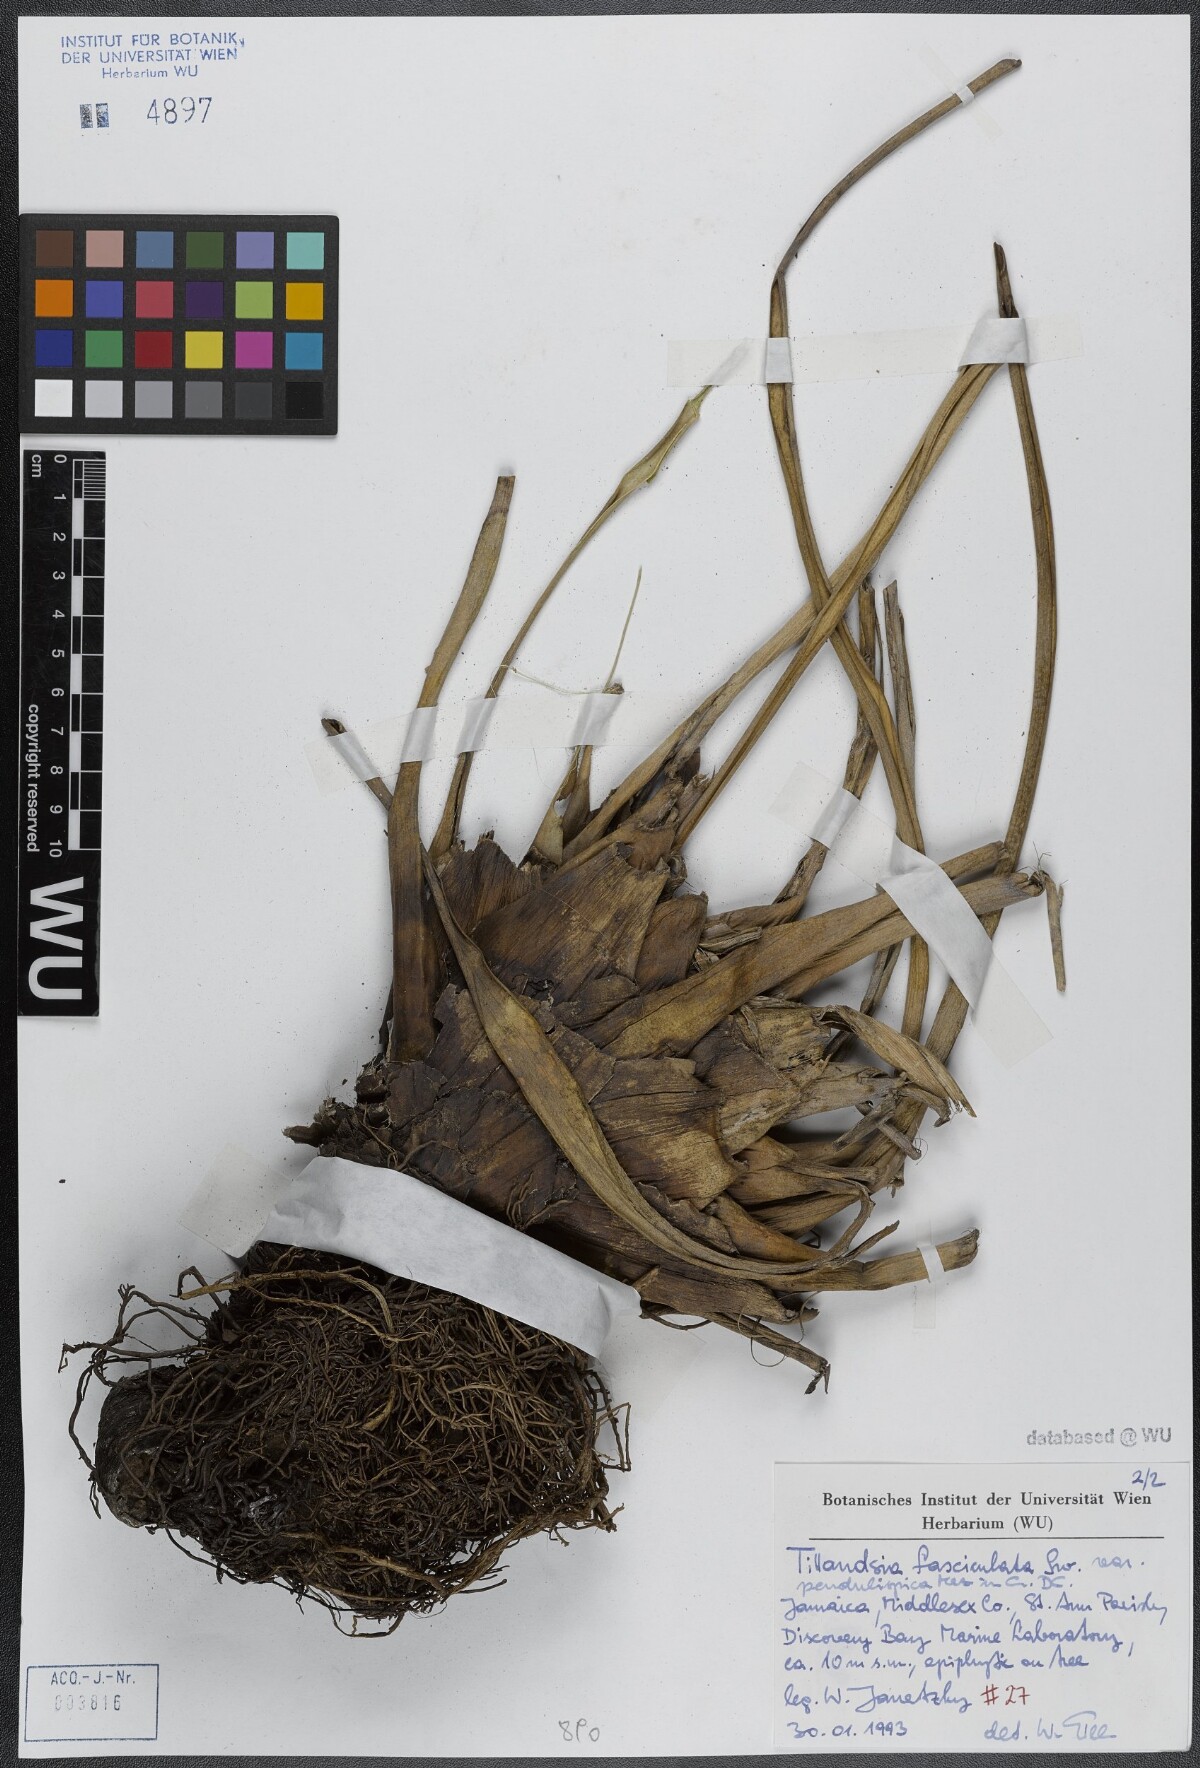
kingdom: Plantae
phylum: Tracheophyta
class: Liliopsida
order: Poales
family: Bromeliaceae
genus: Tillandsia
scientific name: Tillandsia fasciculata
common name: Giant airplant
